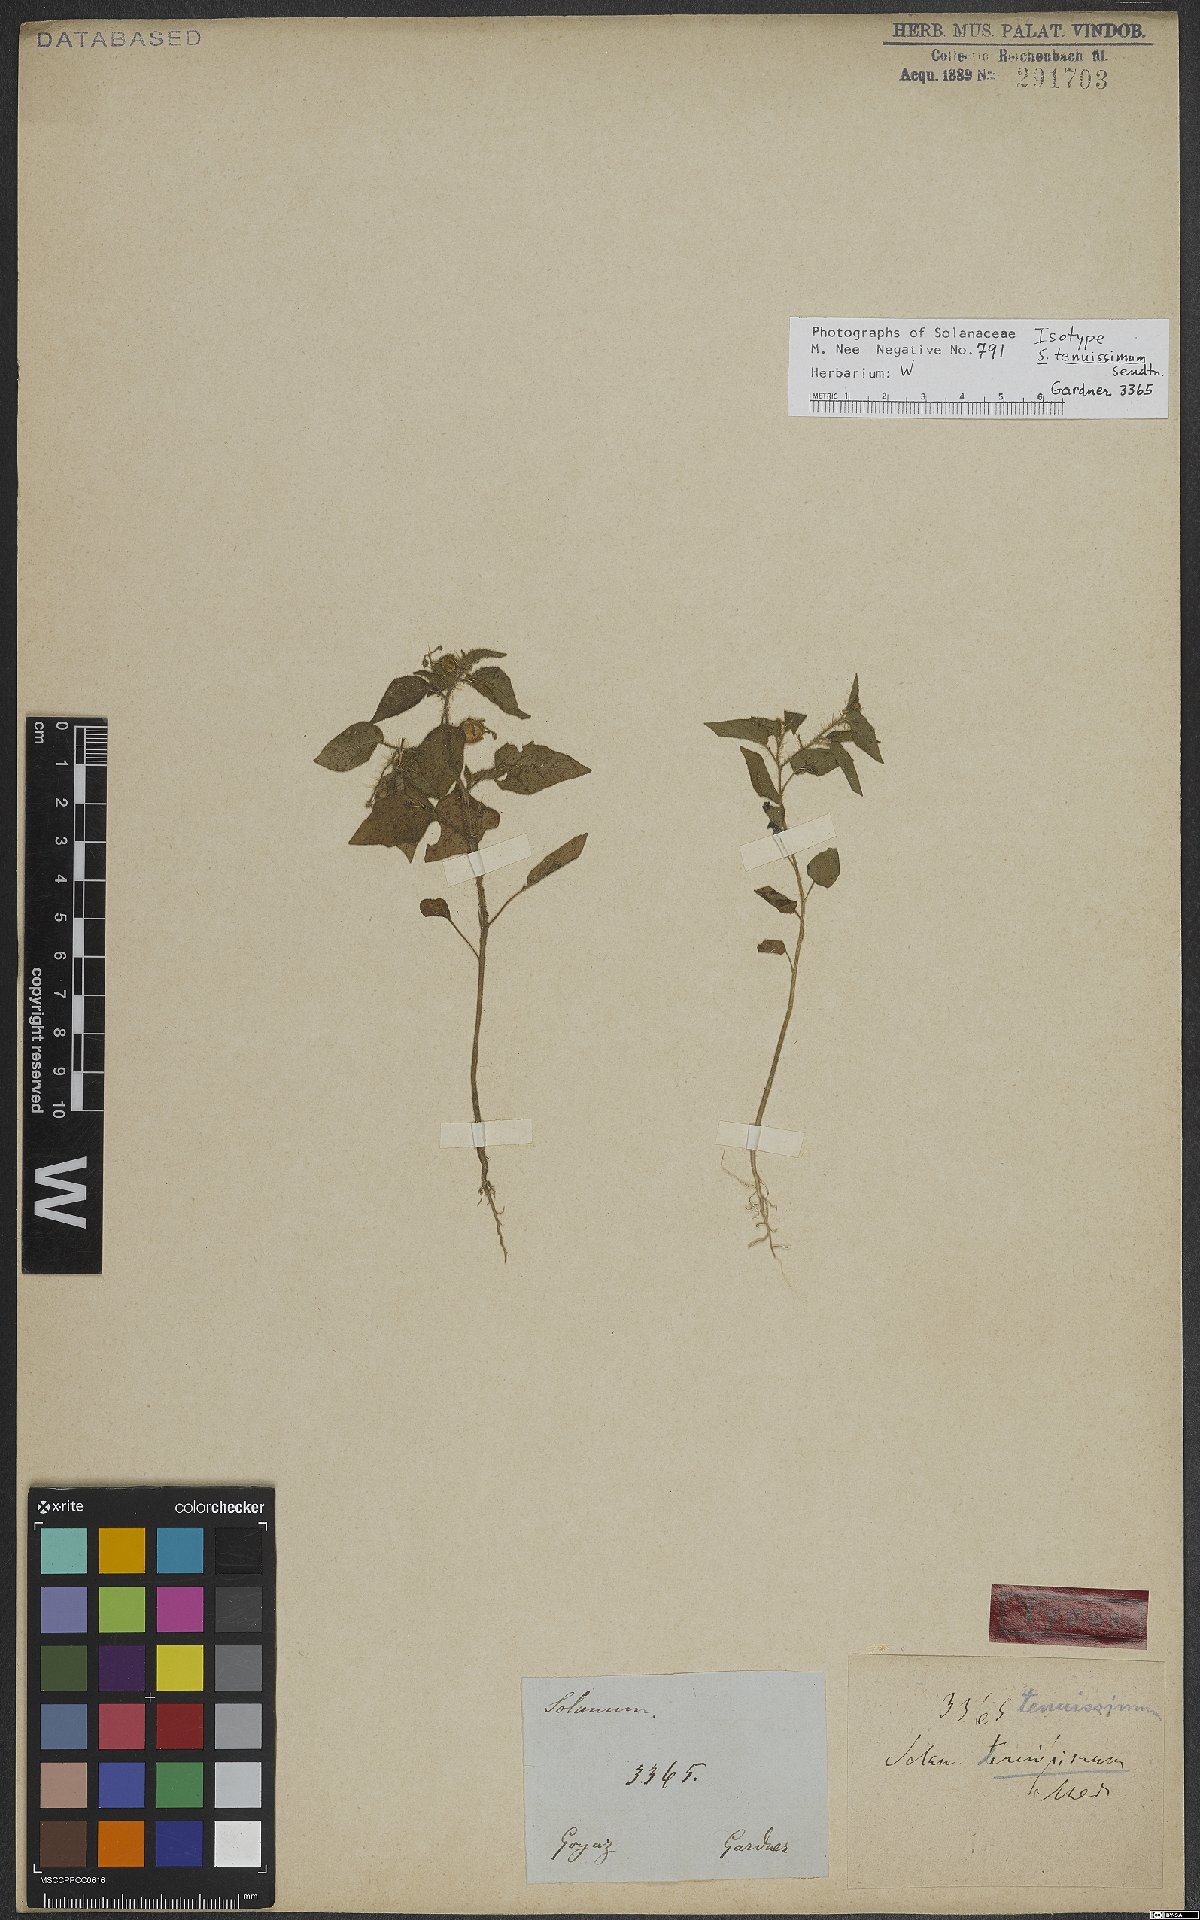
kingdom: Plantae
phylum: Tracheophyta
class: Magnoliopsida
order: Solanales
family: Solanaceae
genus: Solanum
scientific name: Solanum tenuissimum
